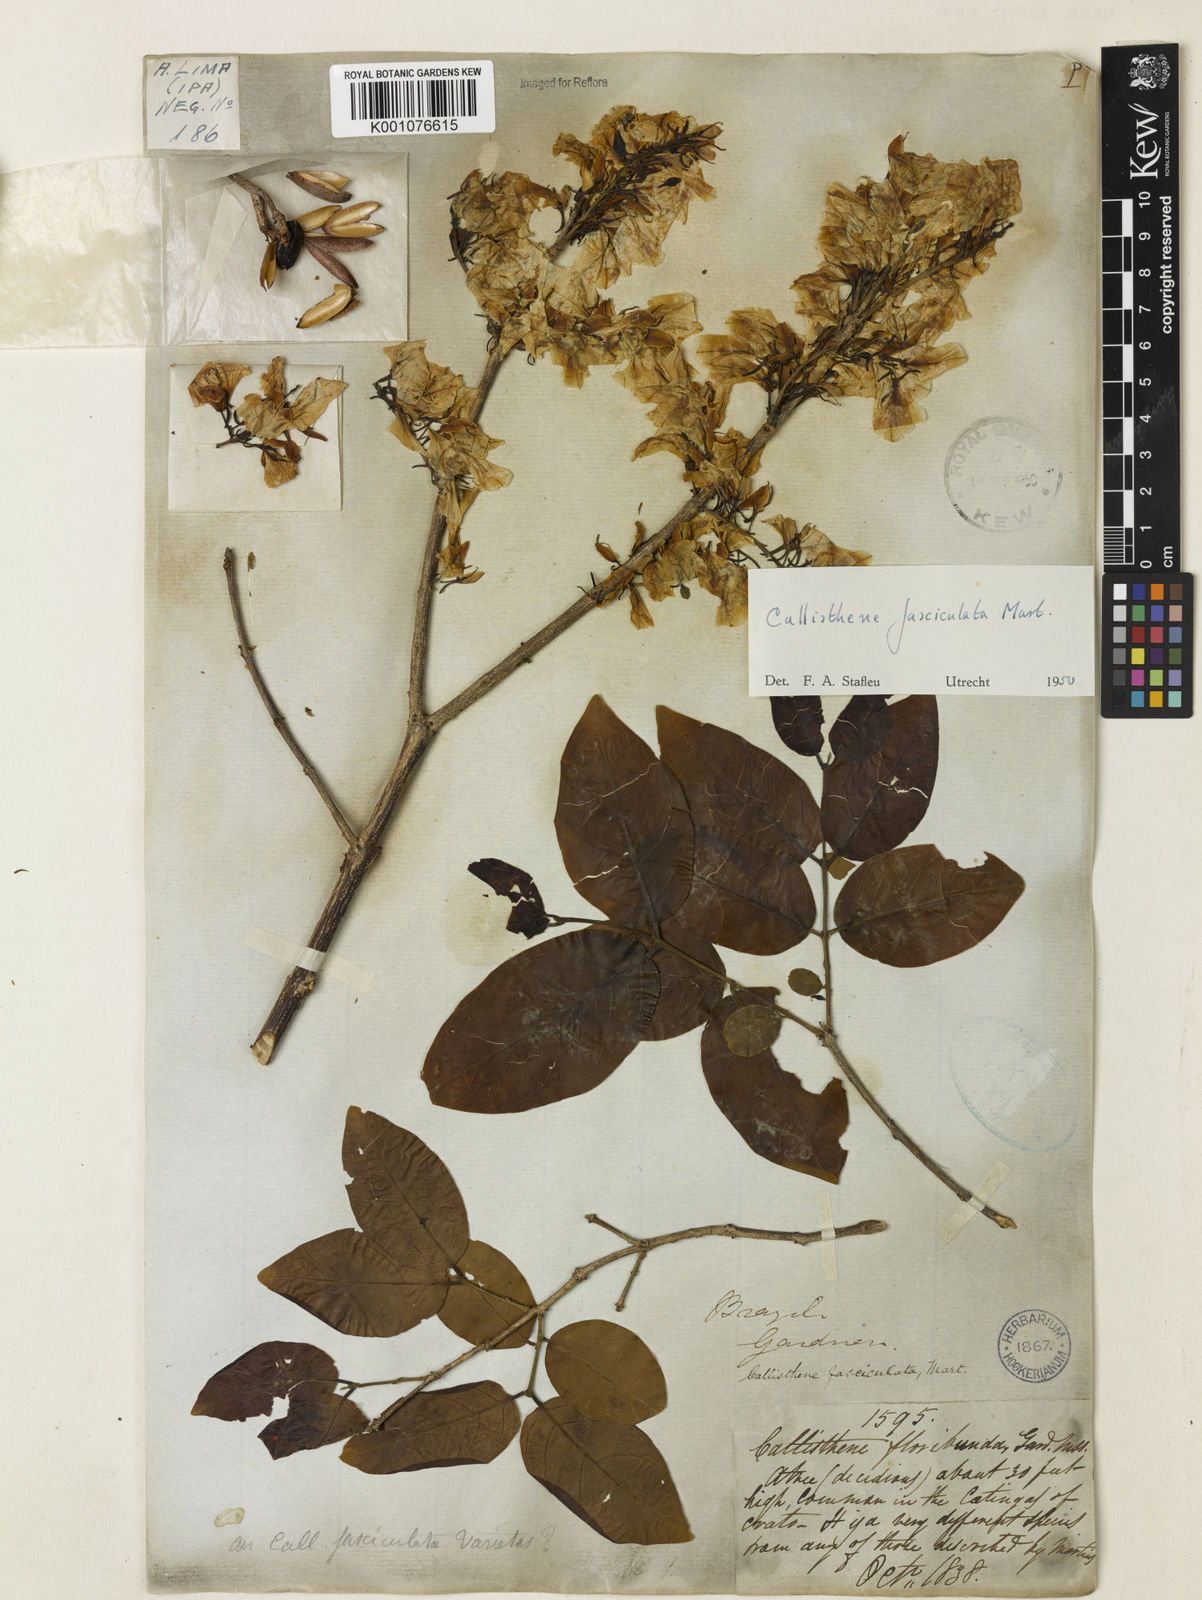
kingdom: Plantae
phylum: Tracheophyta
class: Magnoliopsida
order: Myrtales
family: Vochysiaceae
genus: Callisthene
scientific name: Callisthene fasciculata
